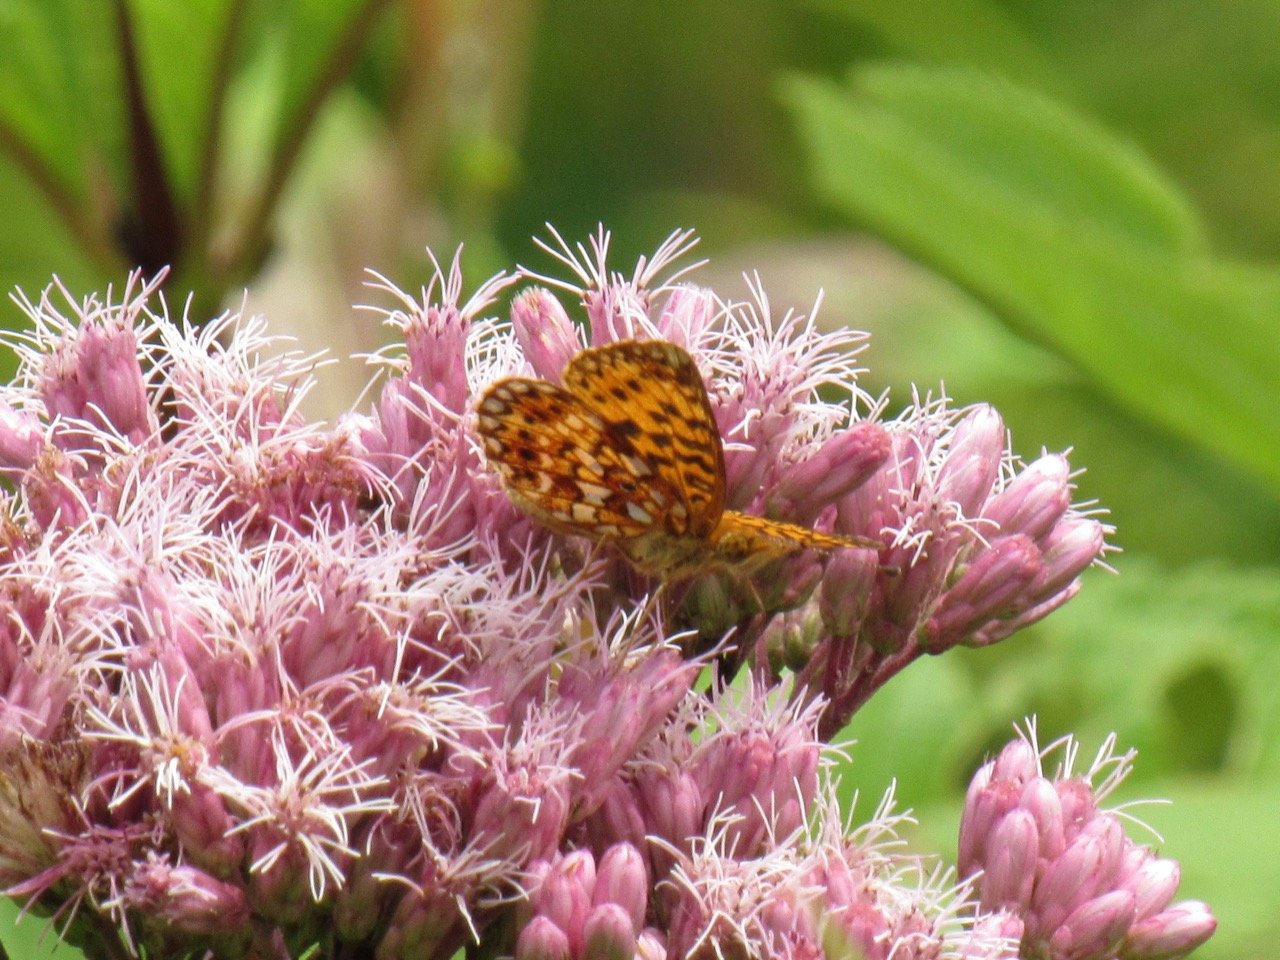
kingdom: Animalia
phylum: Arthropoda
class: Insecta
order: Lepidoptera
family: Nymphalidae
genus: Boloria
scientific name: Boloria selene
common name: Silver-bordered Fritillary
